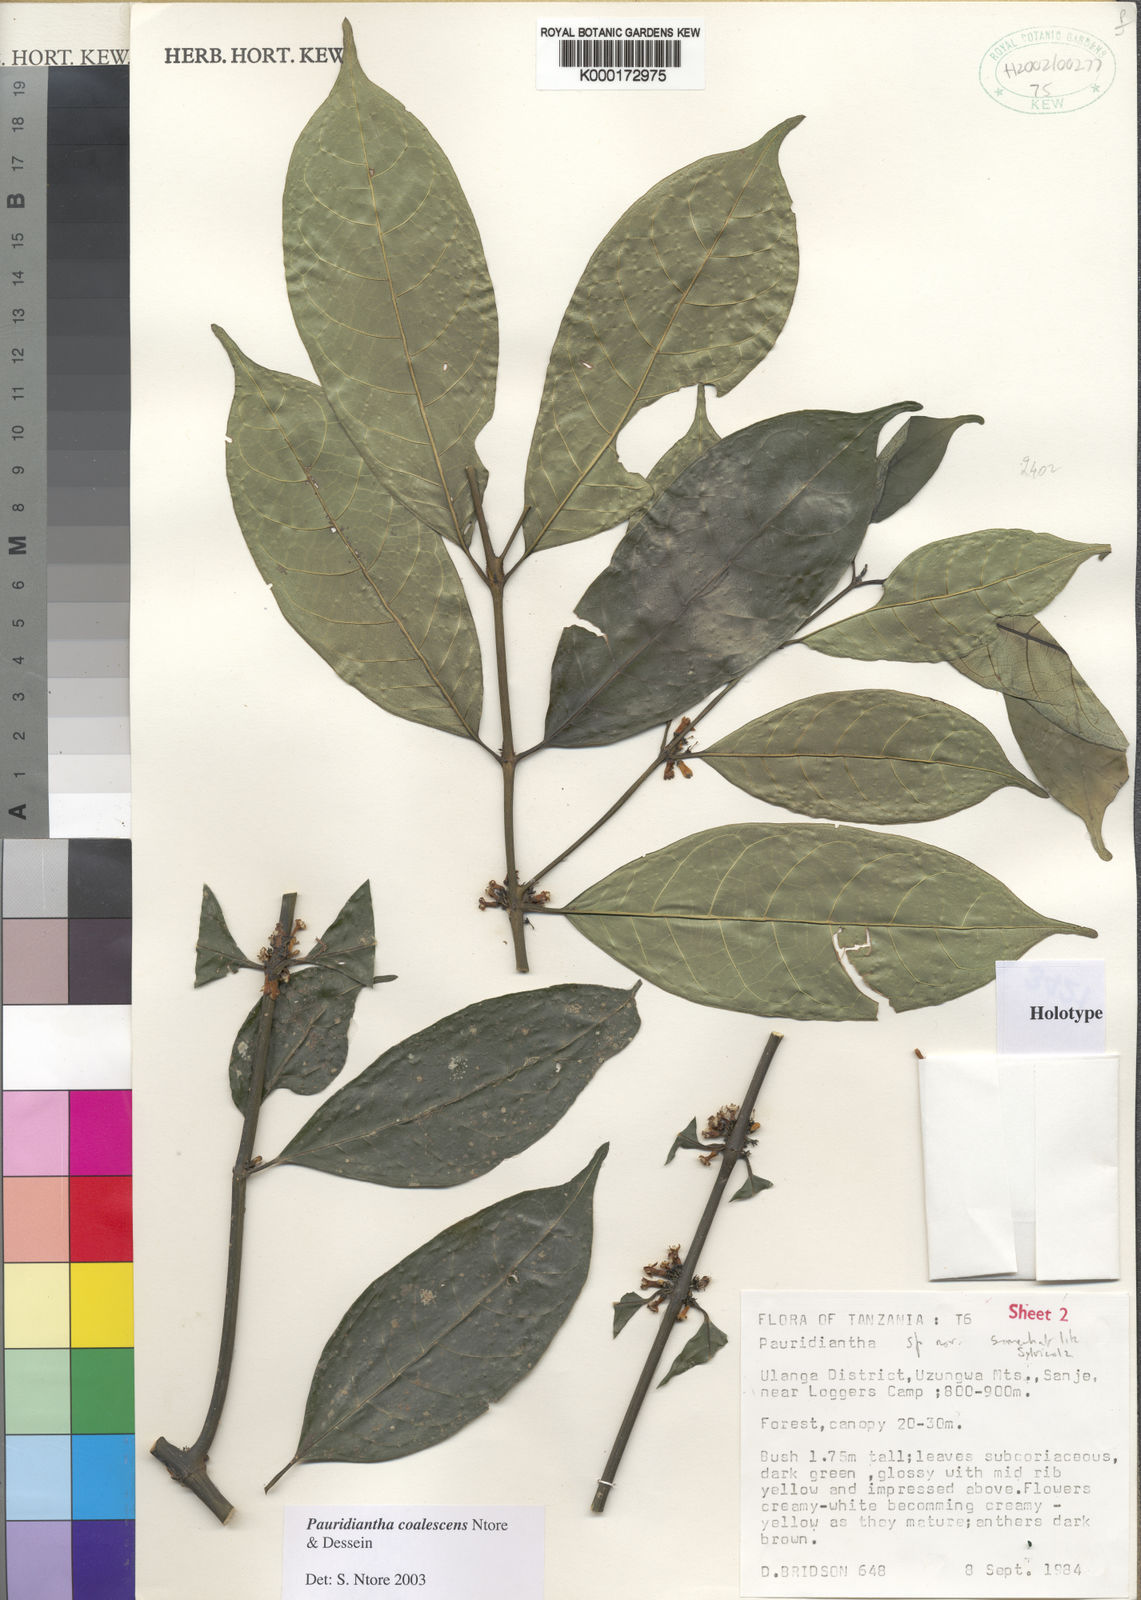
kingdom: Plantae
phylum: Tracheophyta
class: Magnoliopsida
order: Gentianales
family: Rubiaceae
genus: Pauridiantha
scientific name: Pauridiantha coalescens
